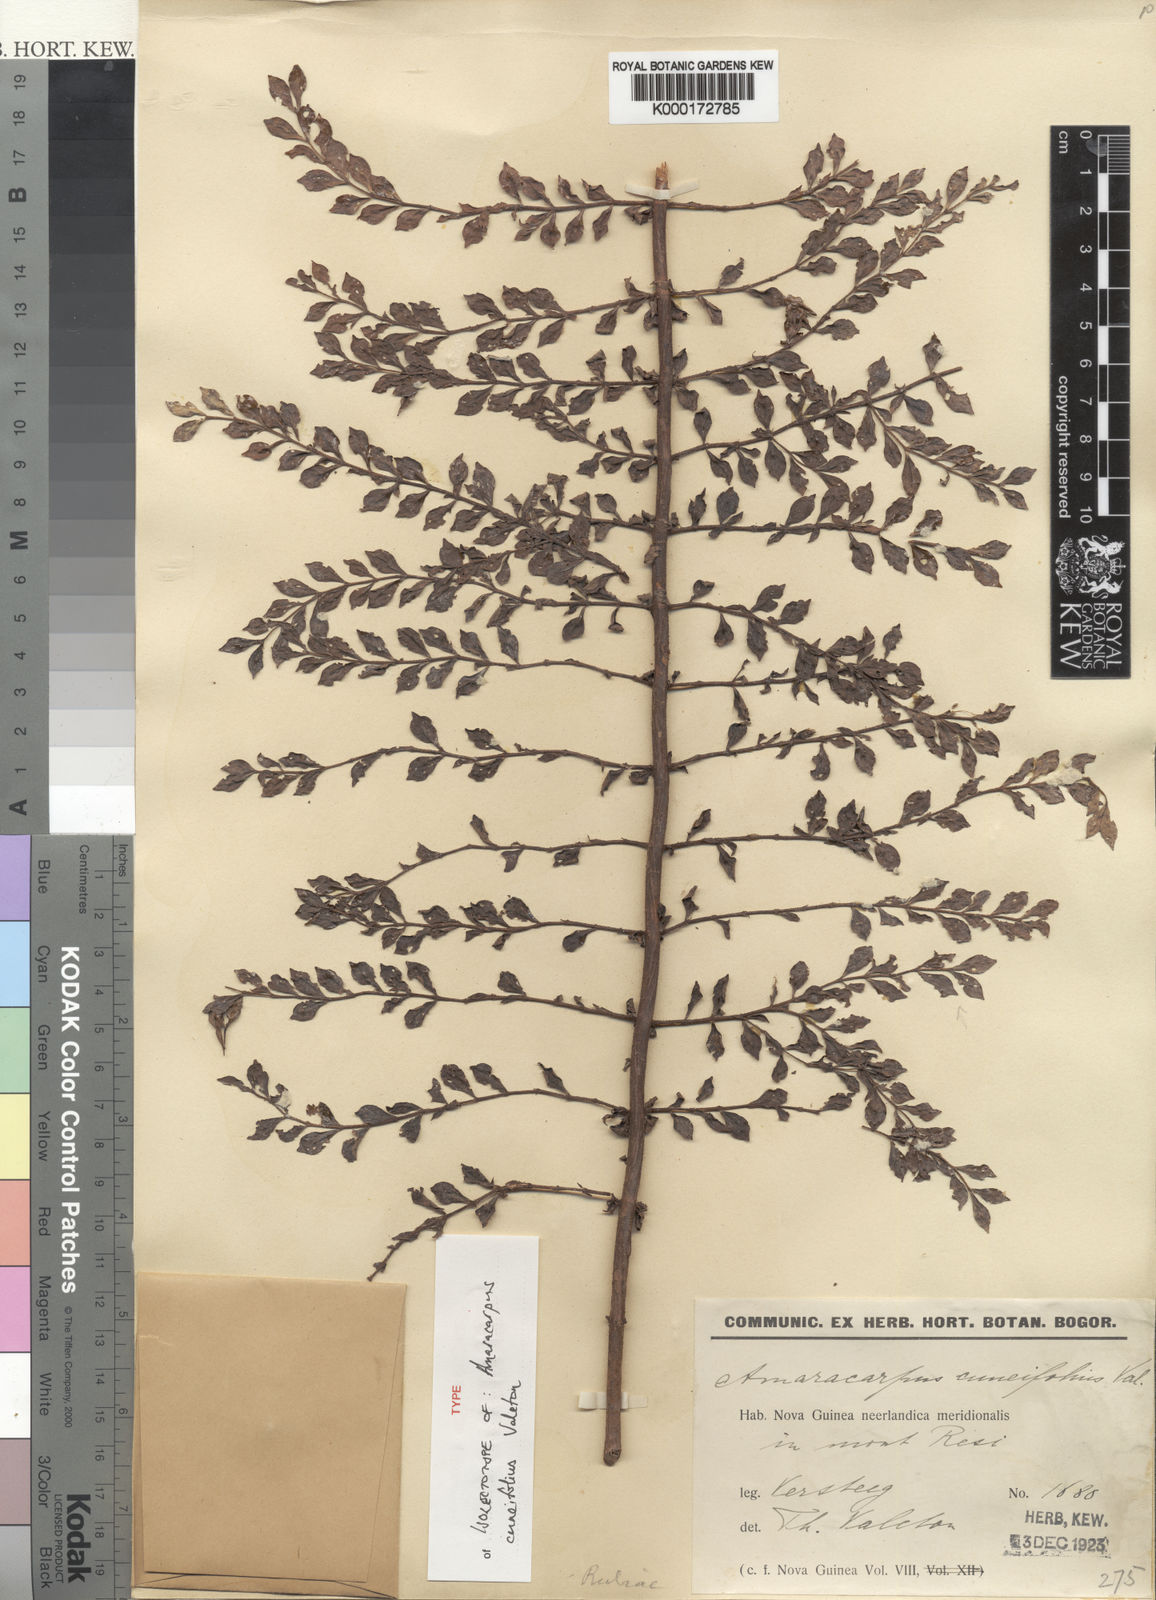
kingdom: Plantae
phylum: Tracheophyta
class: Magnoliopsida
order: Gentianales
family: Rubiaceae
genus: Amaracarpus
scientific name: Amaracarpus cuneifolius
